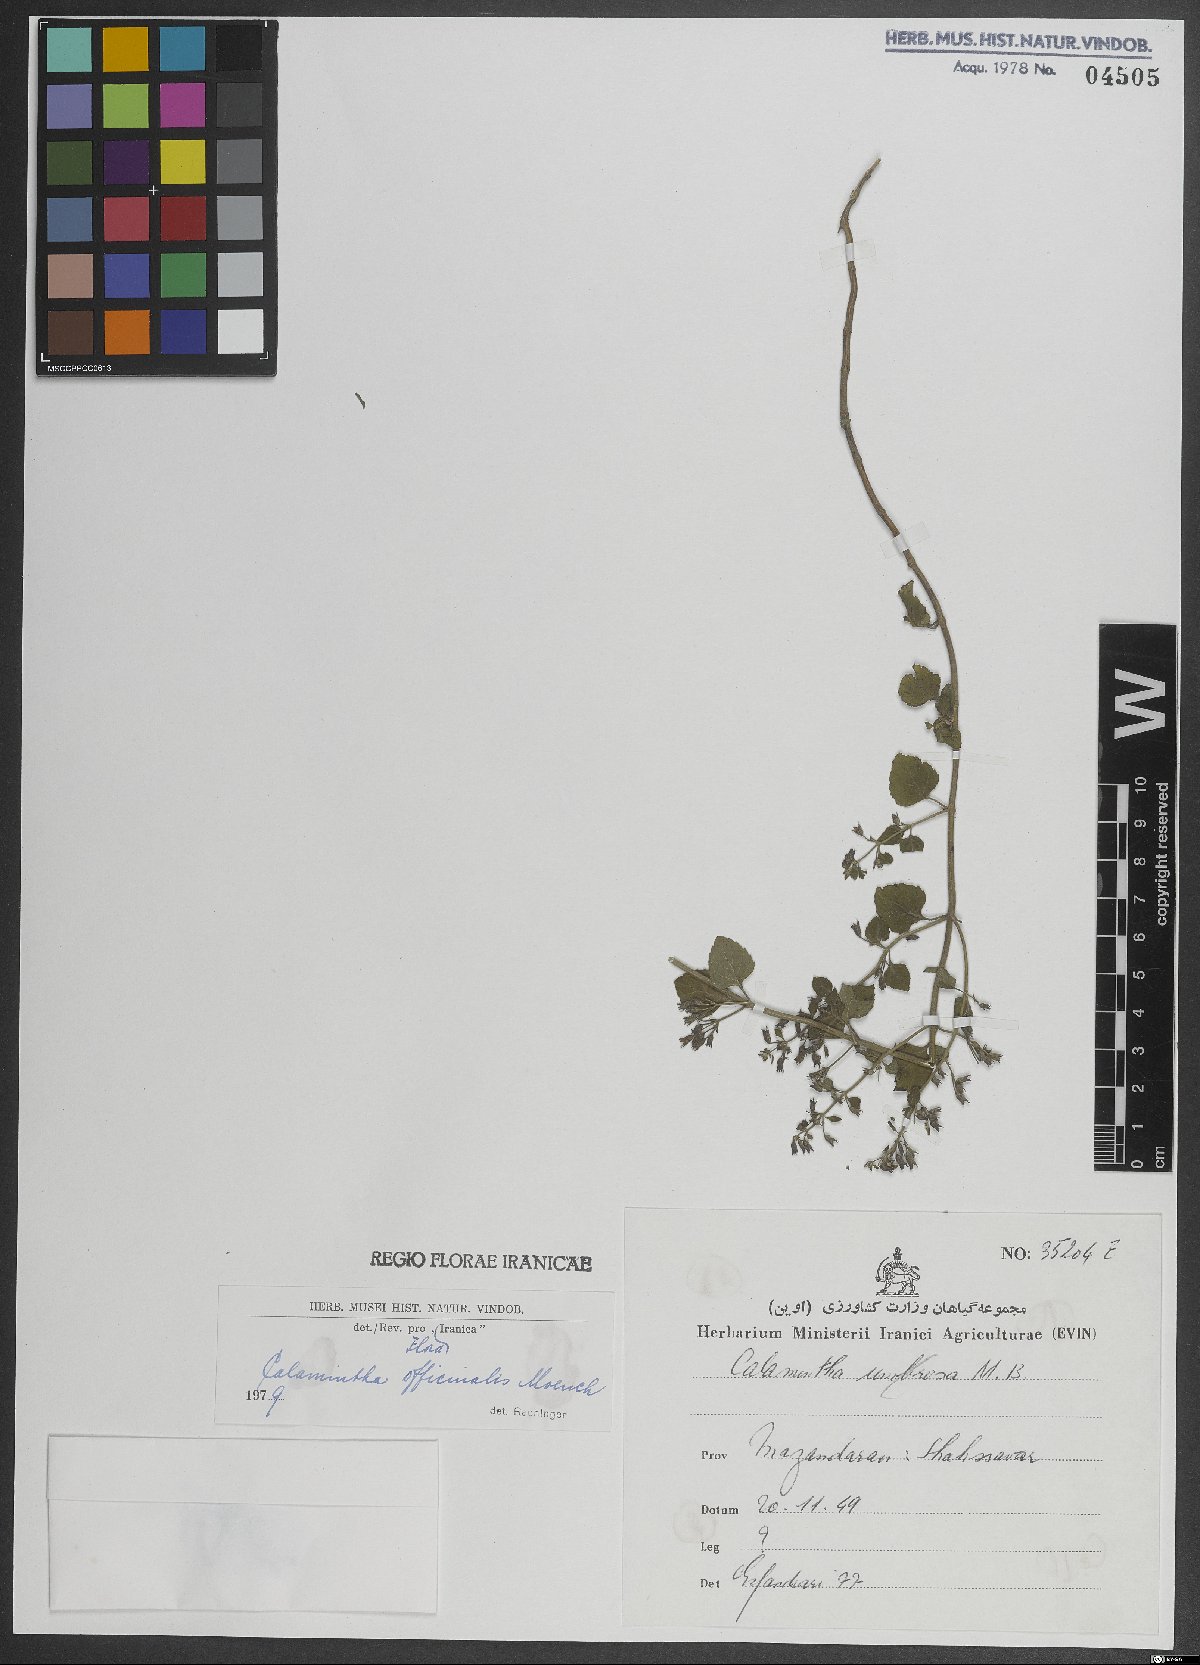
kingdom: Plantae
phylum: Tracheophyta
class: Magnoliopsida
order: Lamiales
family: Lamiaceae
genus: Clinopodium
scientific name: Clinopodium nepeta
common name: Lesser calamint
